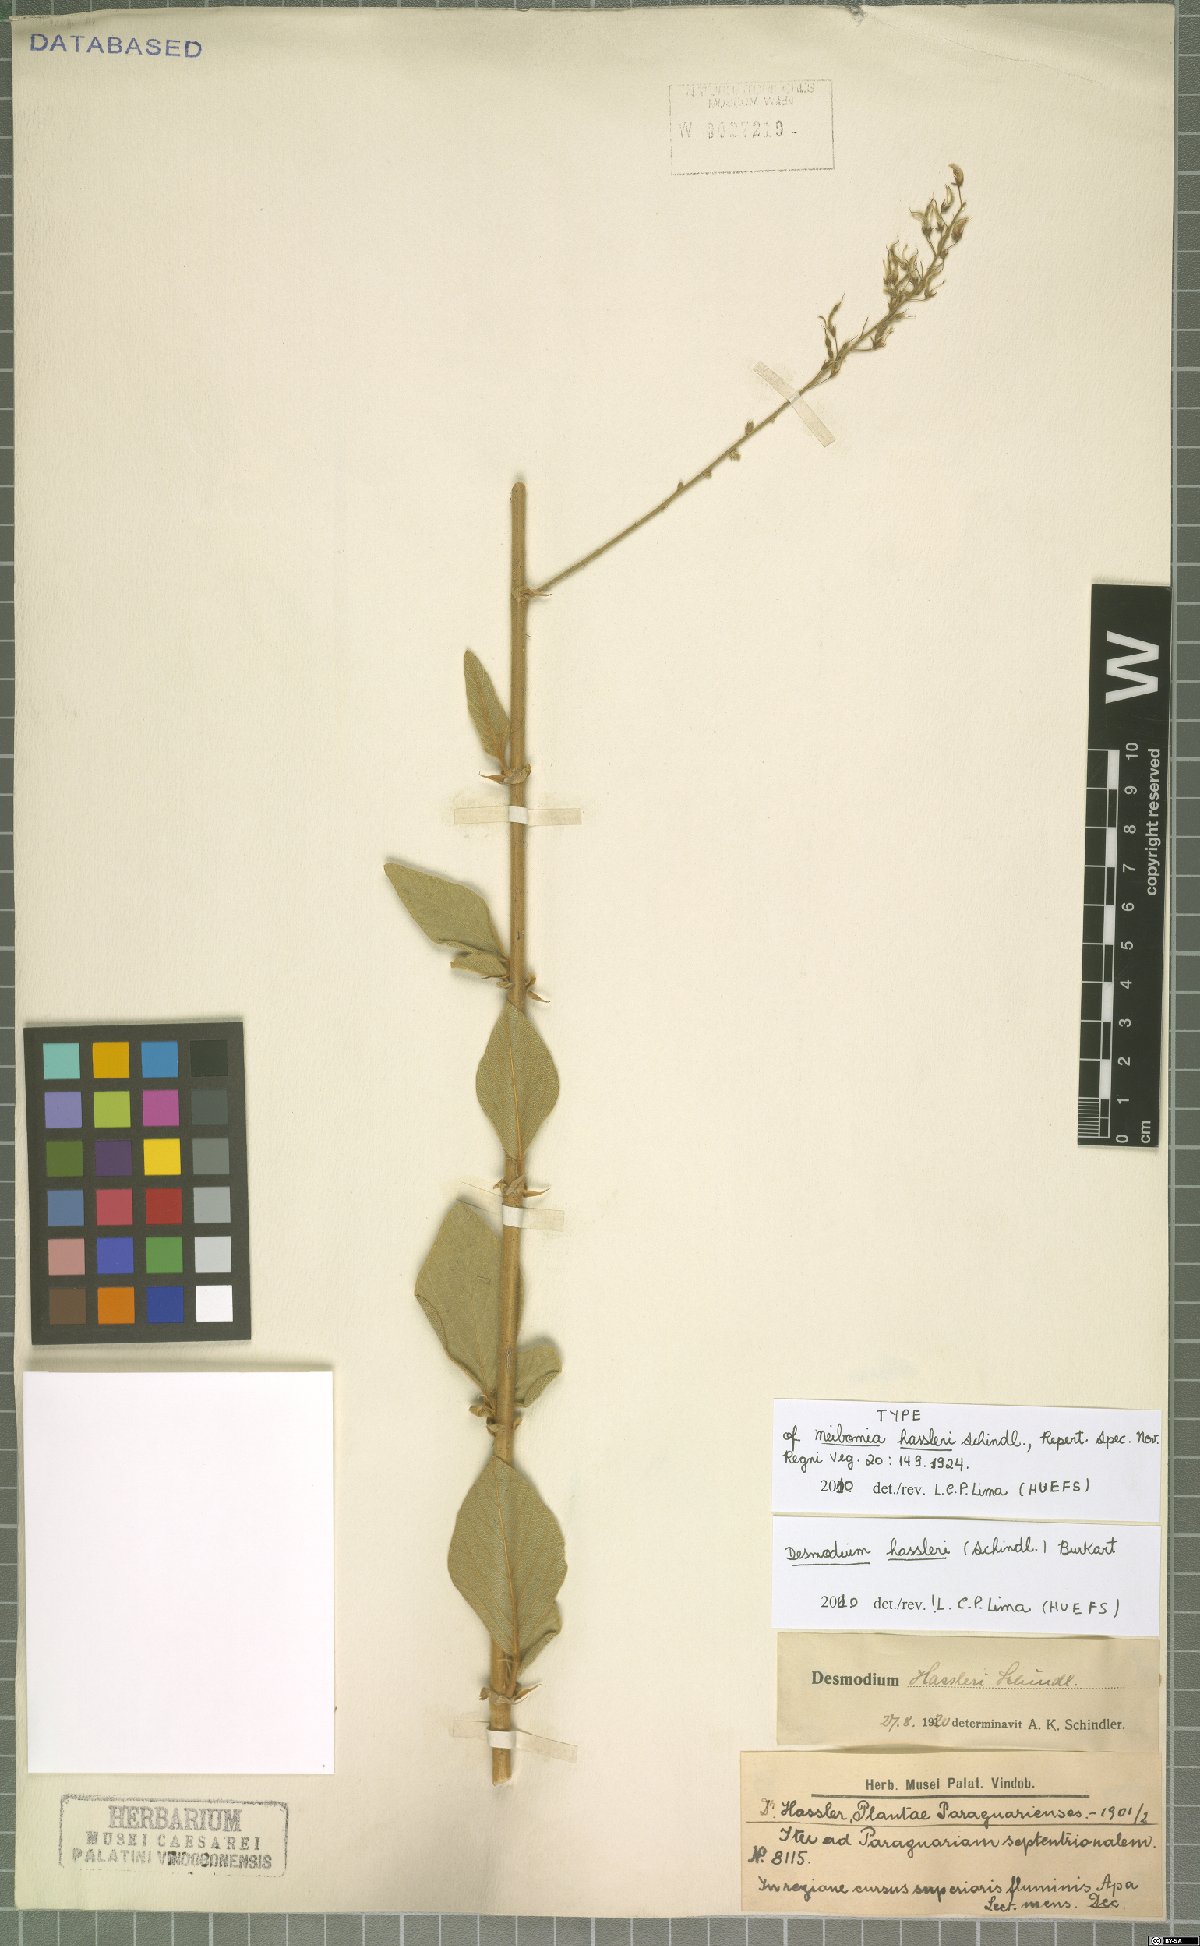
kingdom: Plantae
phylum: Tracheophyta
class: Magnoliopsida
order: Fabales
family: Fabaceae
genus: Desmodium
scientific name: Desmodium hassleri
